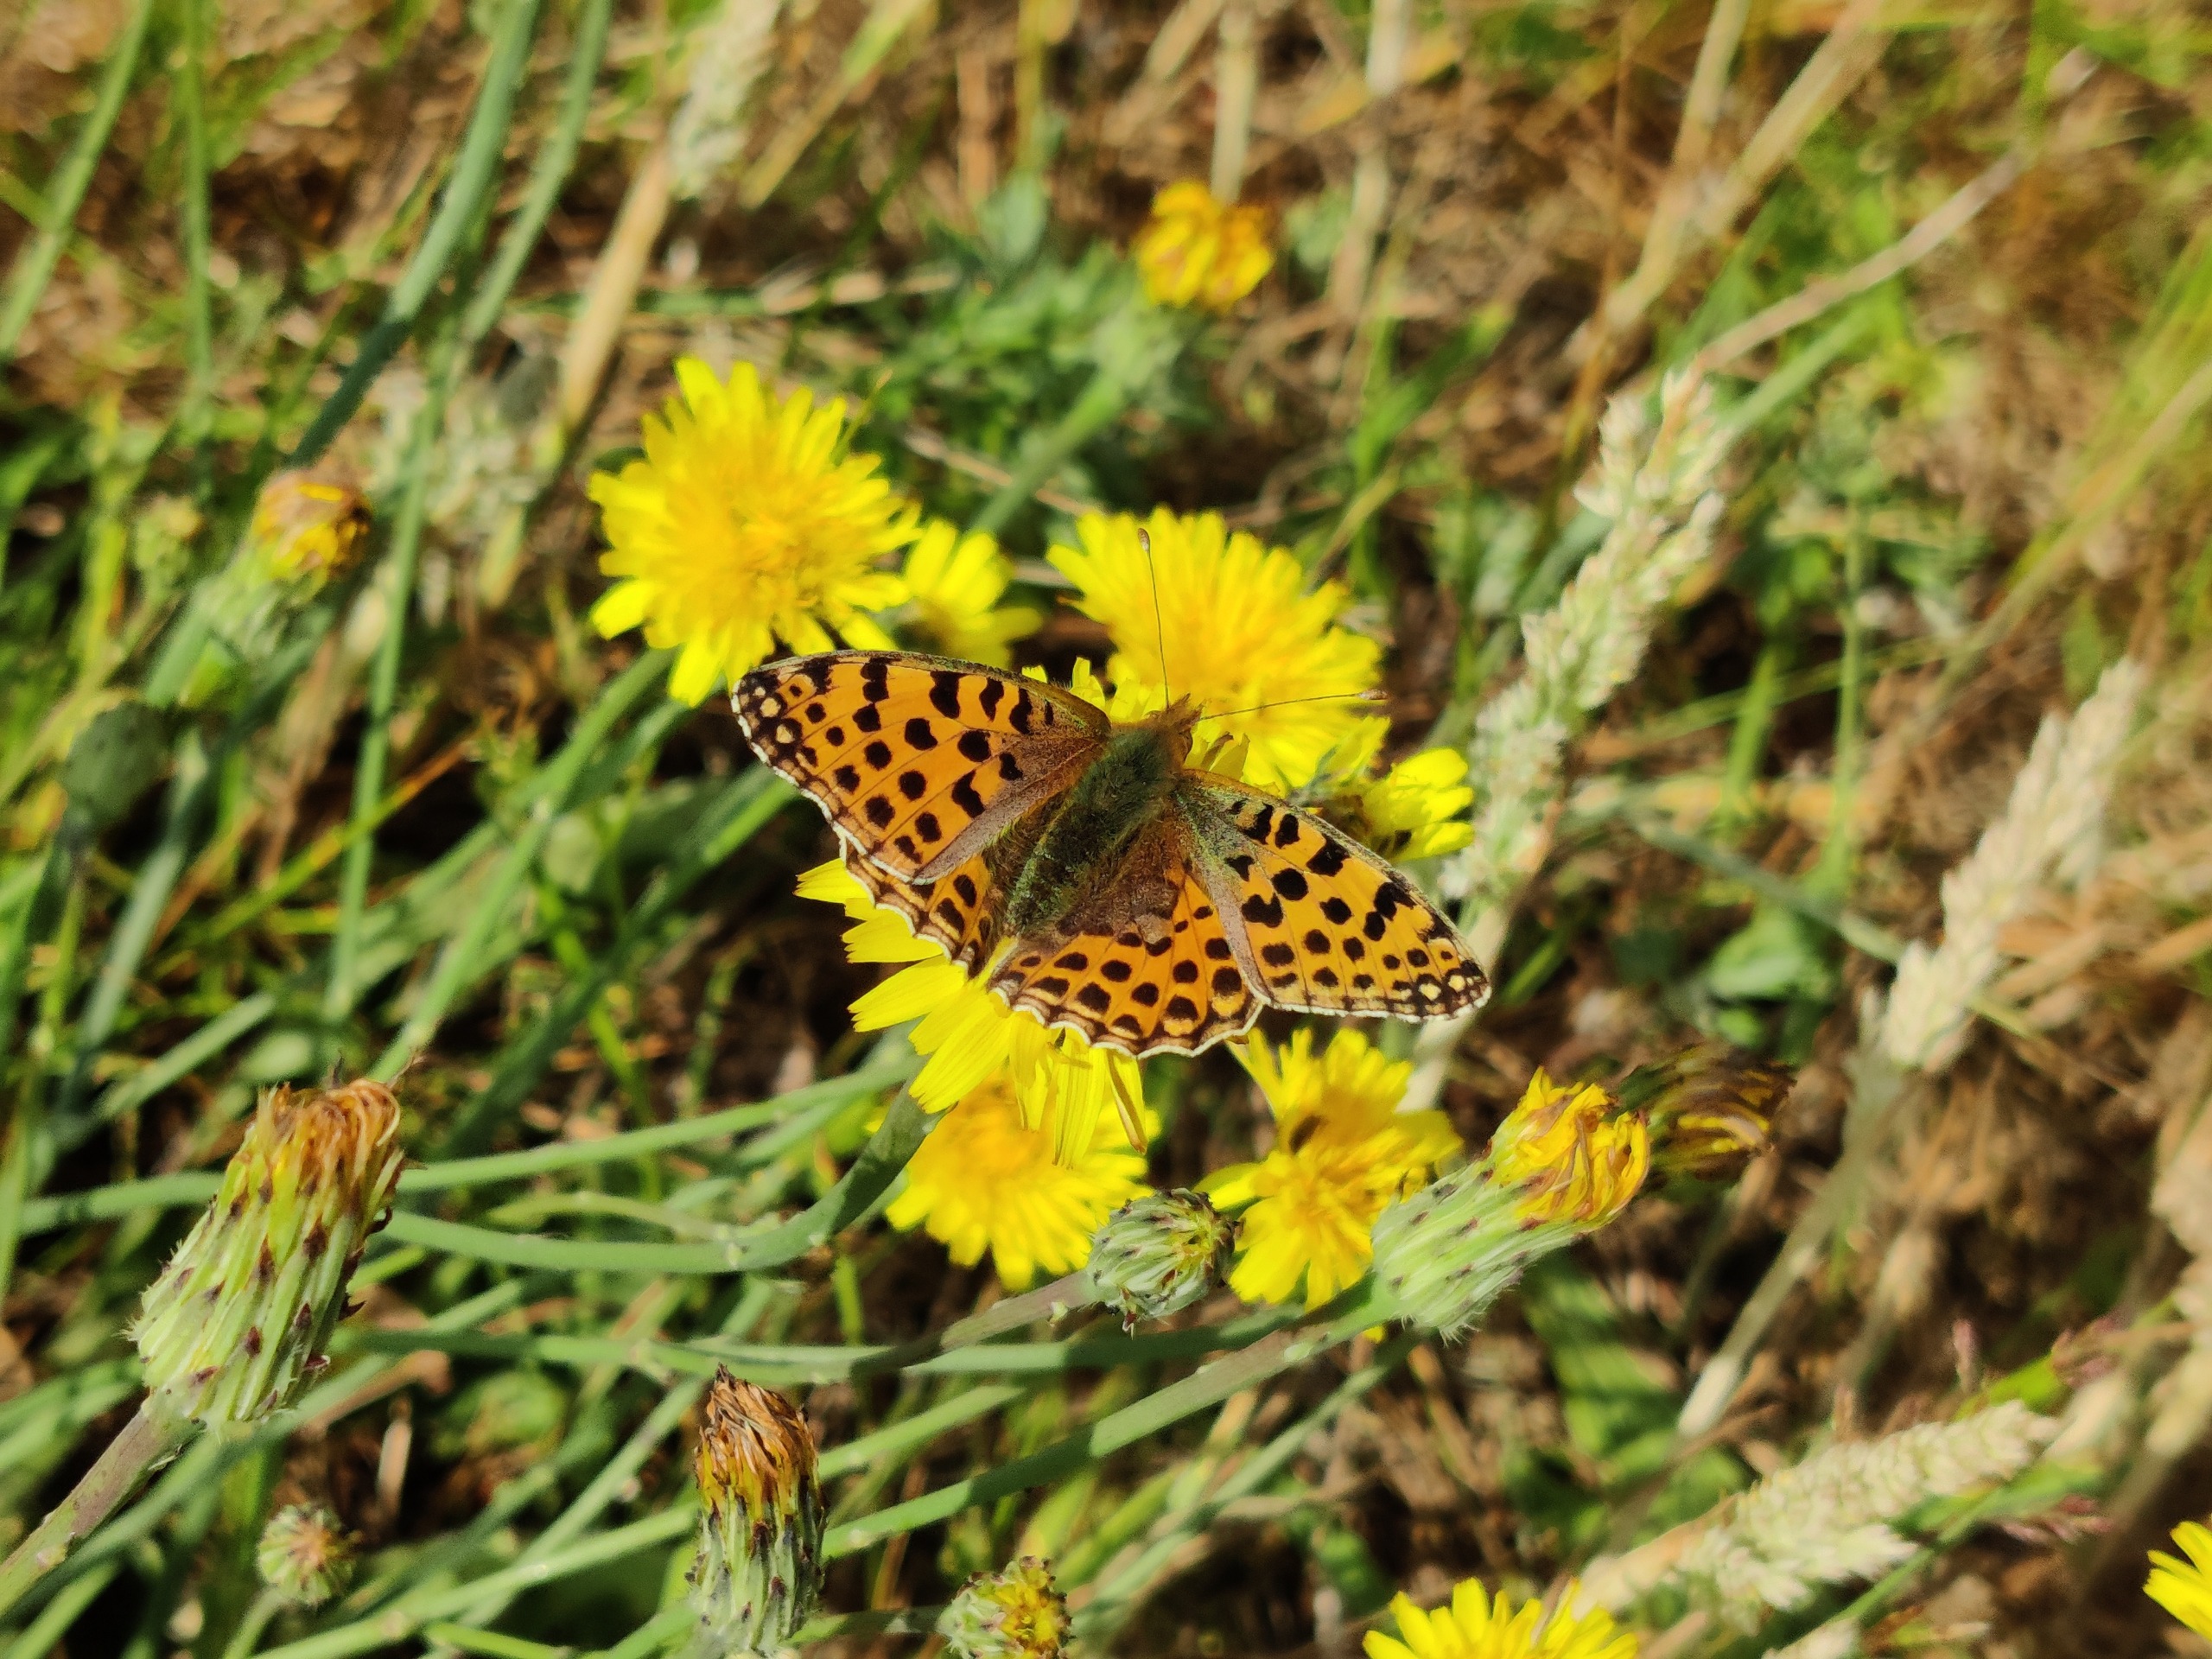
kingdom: Animalia
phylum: Arthropoda
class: Insecta
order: Lepidoptera
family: Nymphalidae
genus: Issoria
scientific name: Issoria lathonia
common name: Storplettet perlemorsommerfugl
